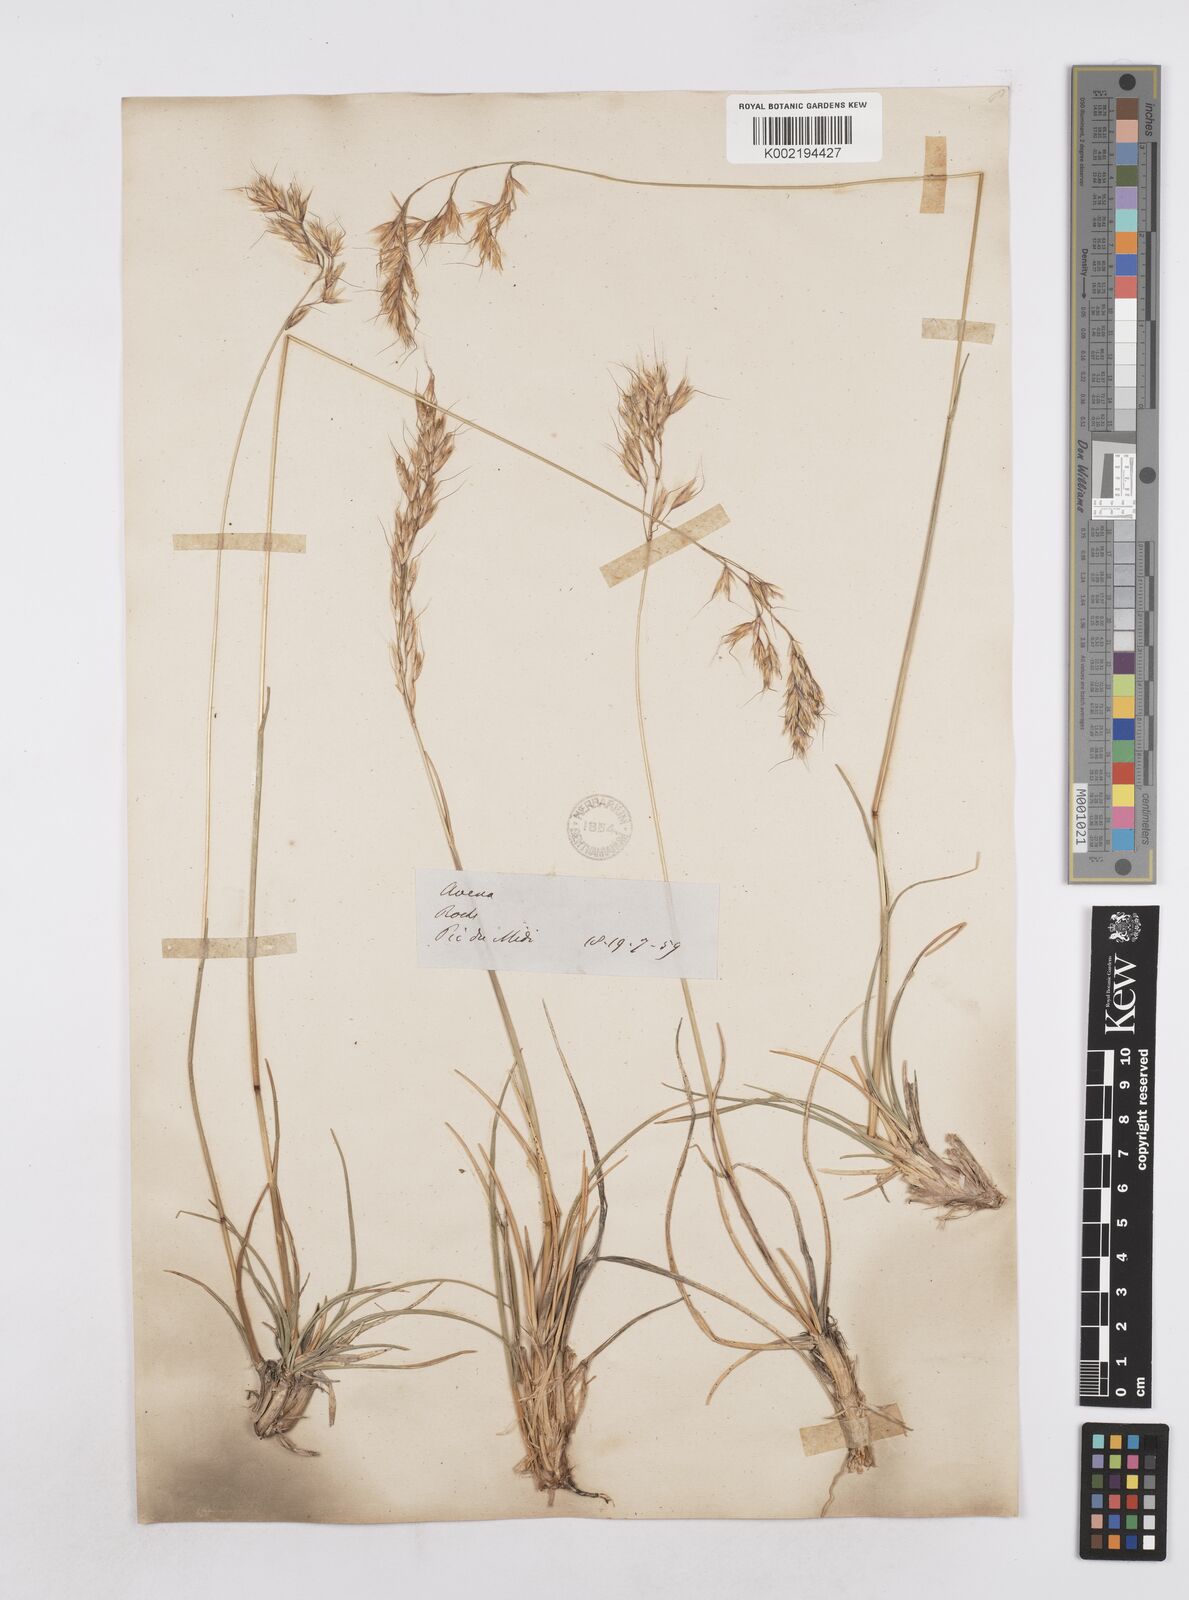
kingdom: Plantae
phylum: Tracheophyta
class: Liliopsida
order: Poales
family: Poaceae
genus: Helictotrichon
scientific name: Helictotrichon sempervirens
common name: Blue oat-grass
